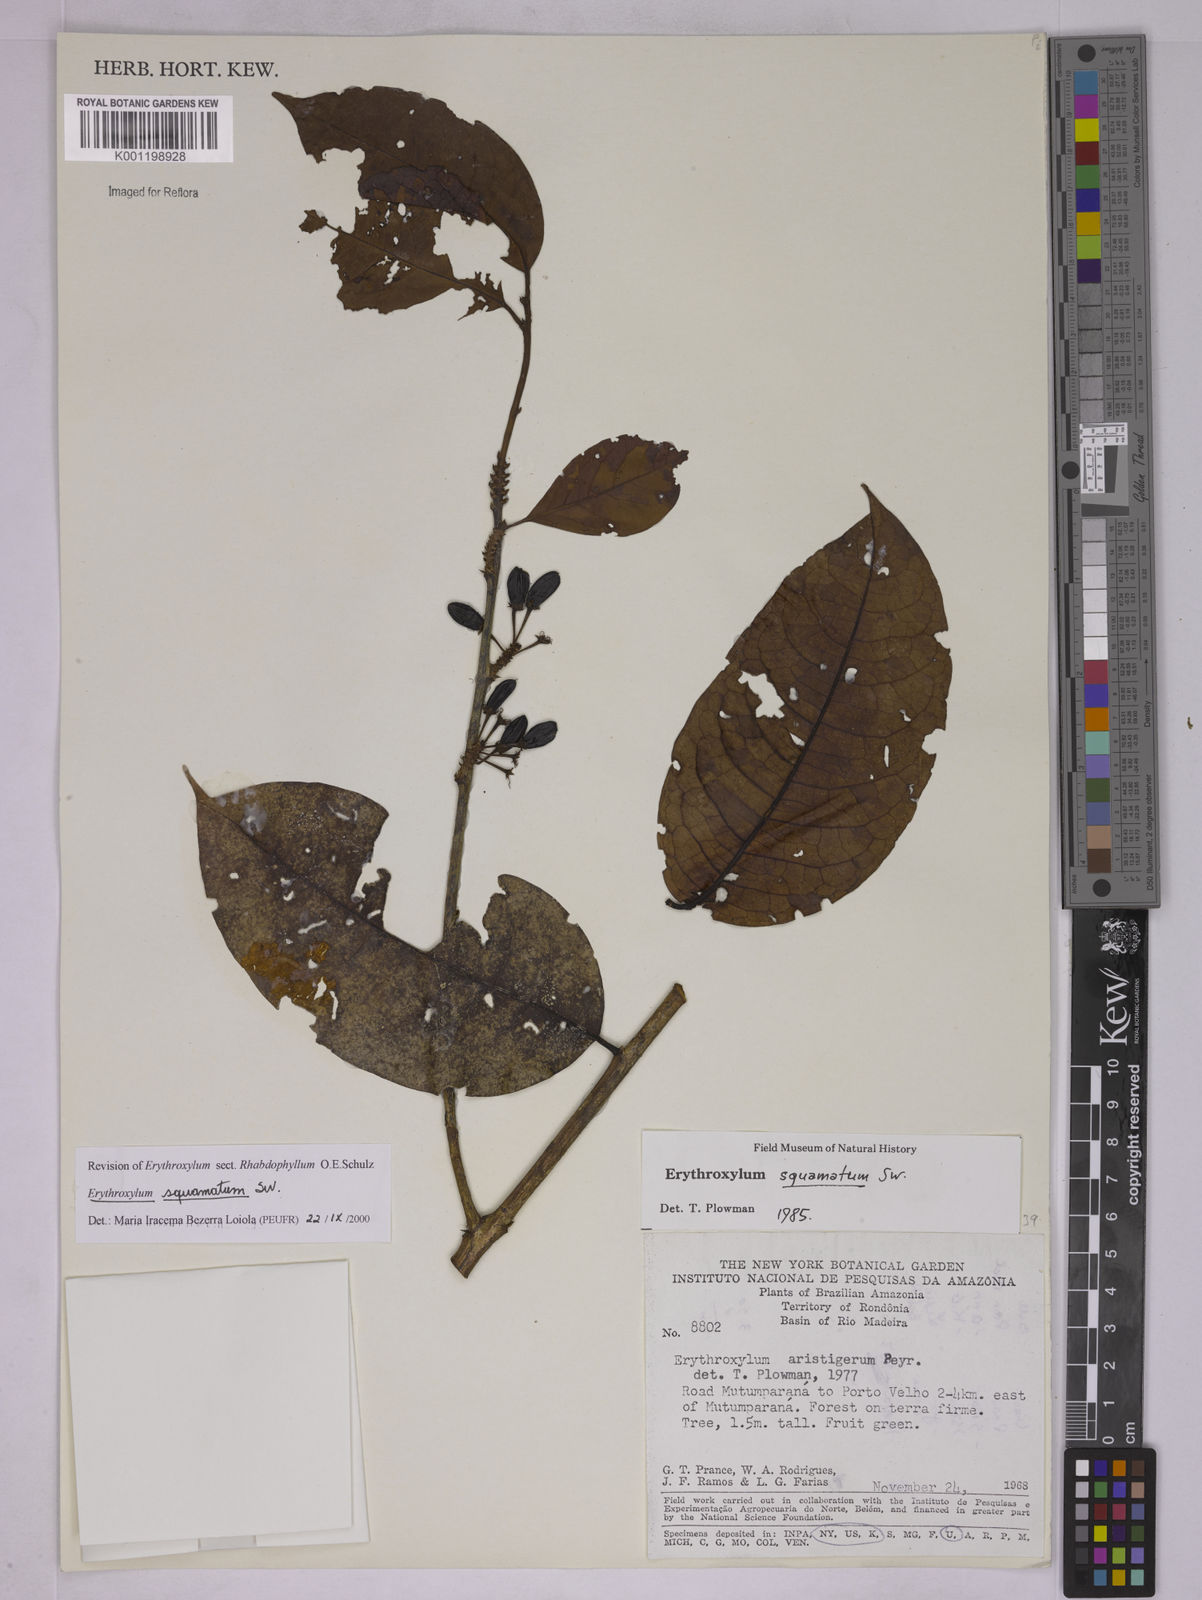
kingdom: Plantae
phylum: Tracheophyta
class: Magnoliopsida
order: Malpighiales
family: Erythroxylaceae
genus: Erythroxylum
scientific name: Erythroxylum squamatum
